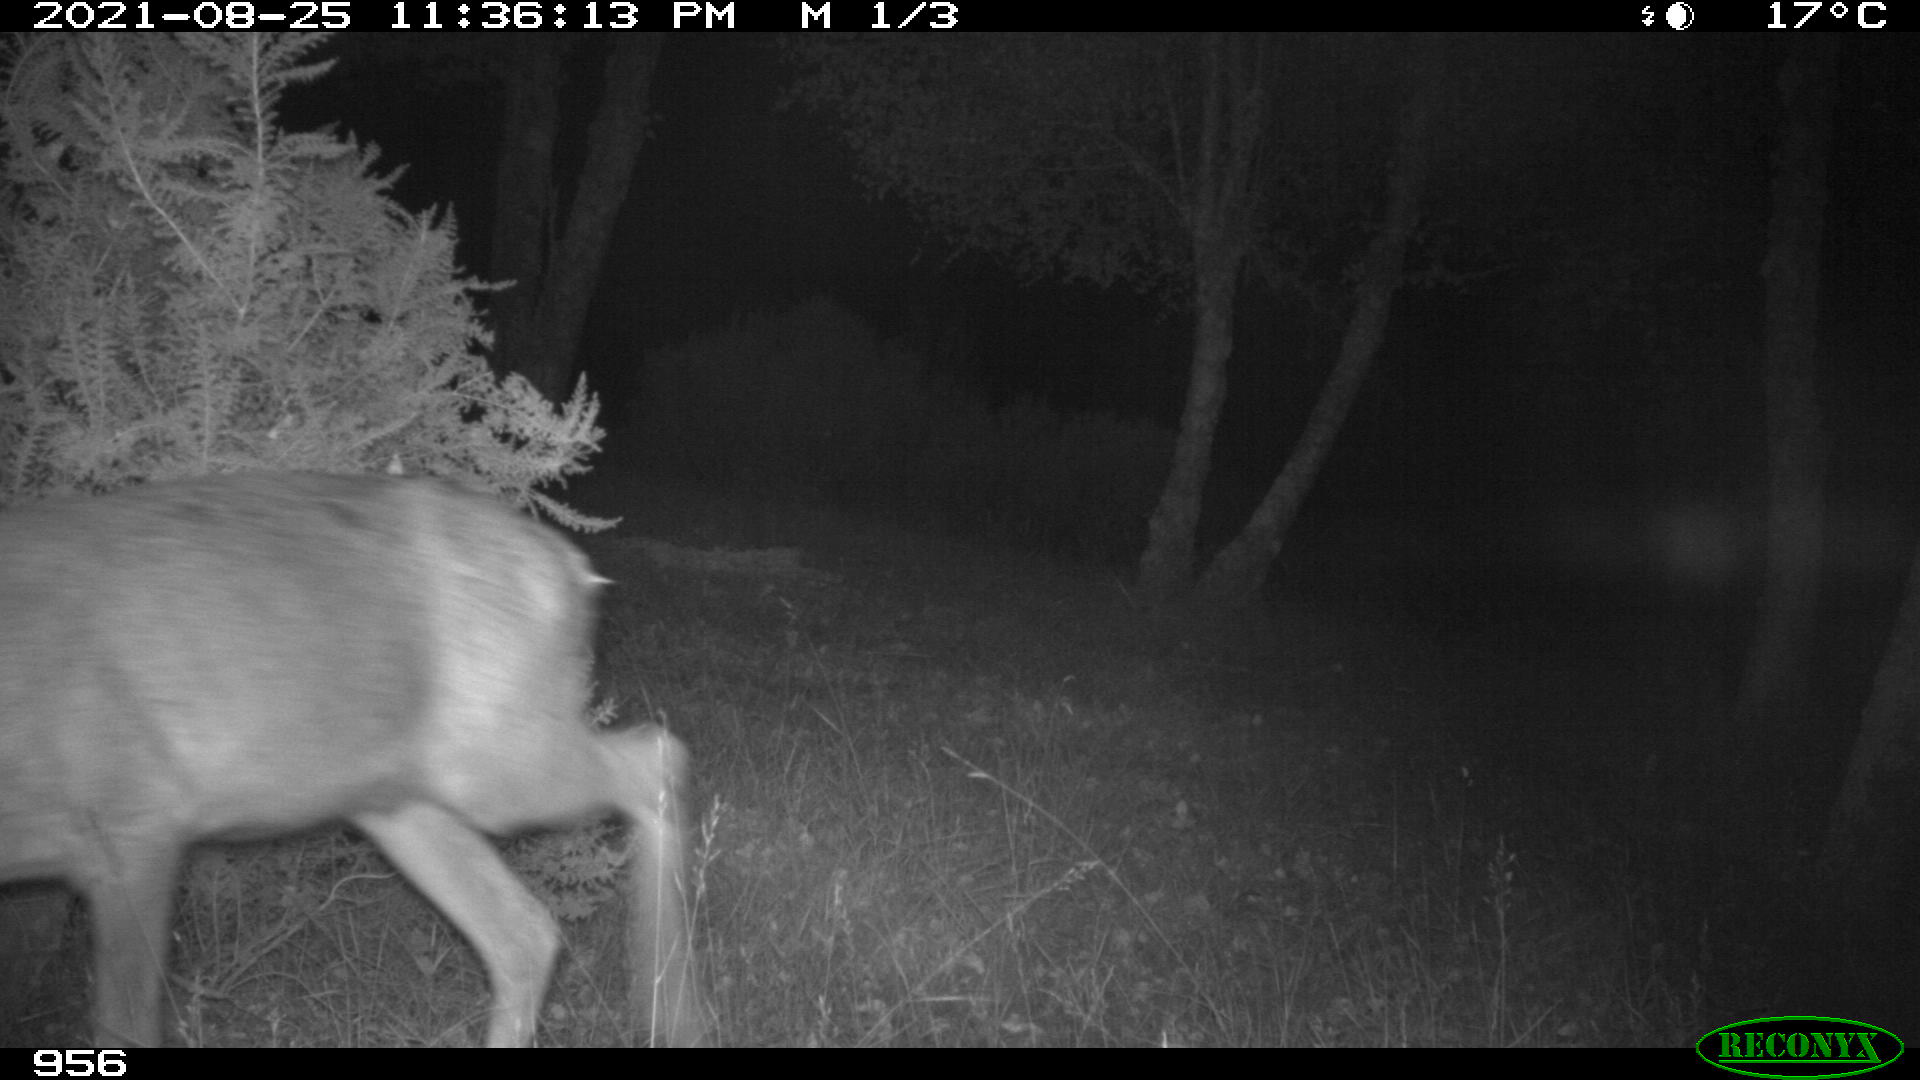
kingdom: Animalia
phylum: Chordata
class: Mammalia
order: Artiodactyla
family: Cervidae
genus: Capreolus
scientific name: Capreolus capreolus
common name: Western roe deer
